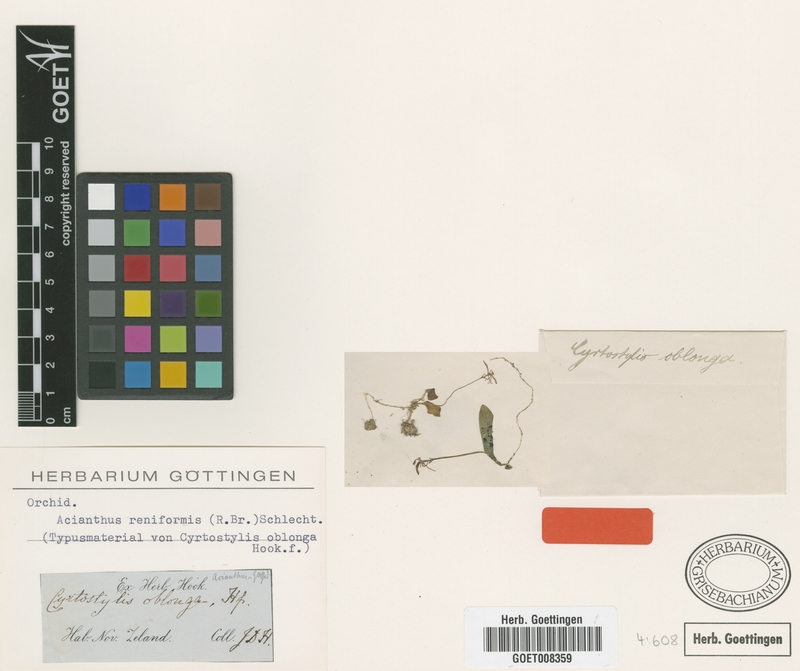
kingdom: Plantae
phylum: Tracheophyta
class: Liliopsida
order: Asparagales
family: Orchidaceae
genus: Cyrtostylis
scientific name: Cyrtostylis reniformis
